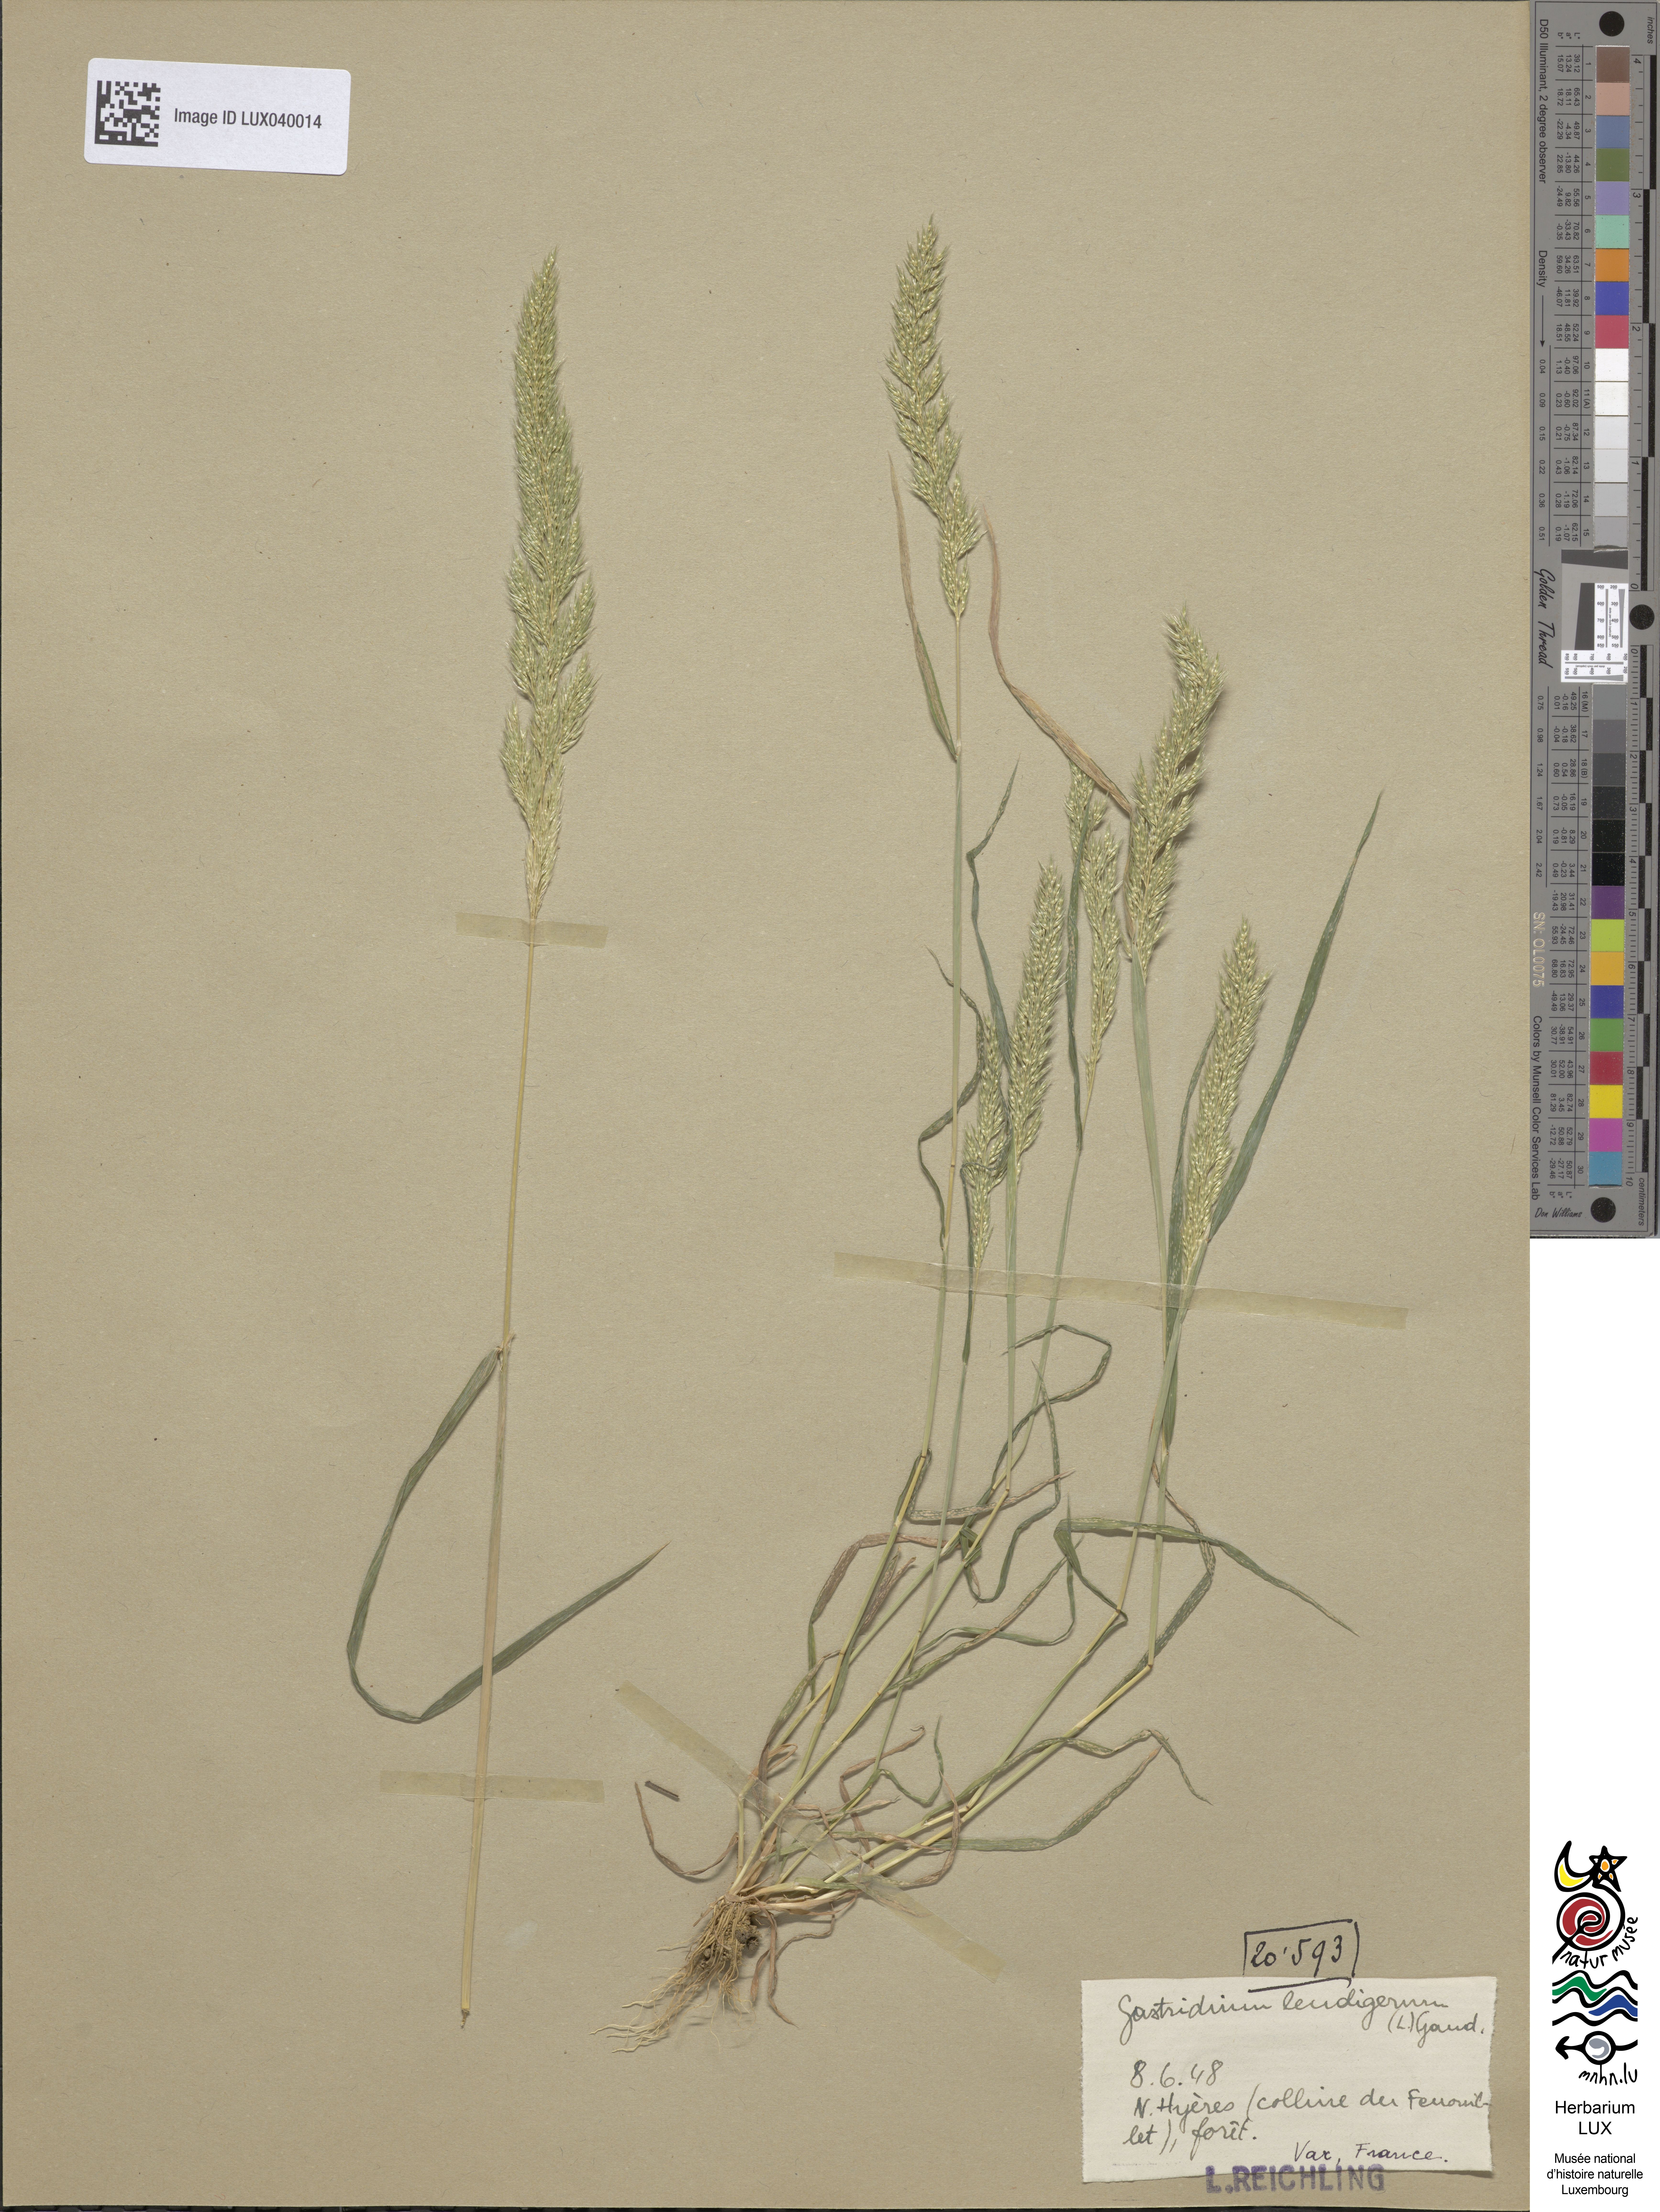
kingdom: Plantae
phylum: Tracheophyta
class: Liliopsida
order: Poales
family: Poaceae
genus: Gastridium
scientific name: Gastridium ventricosum
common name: Nit-grass
